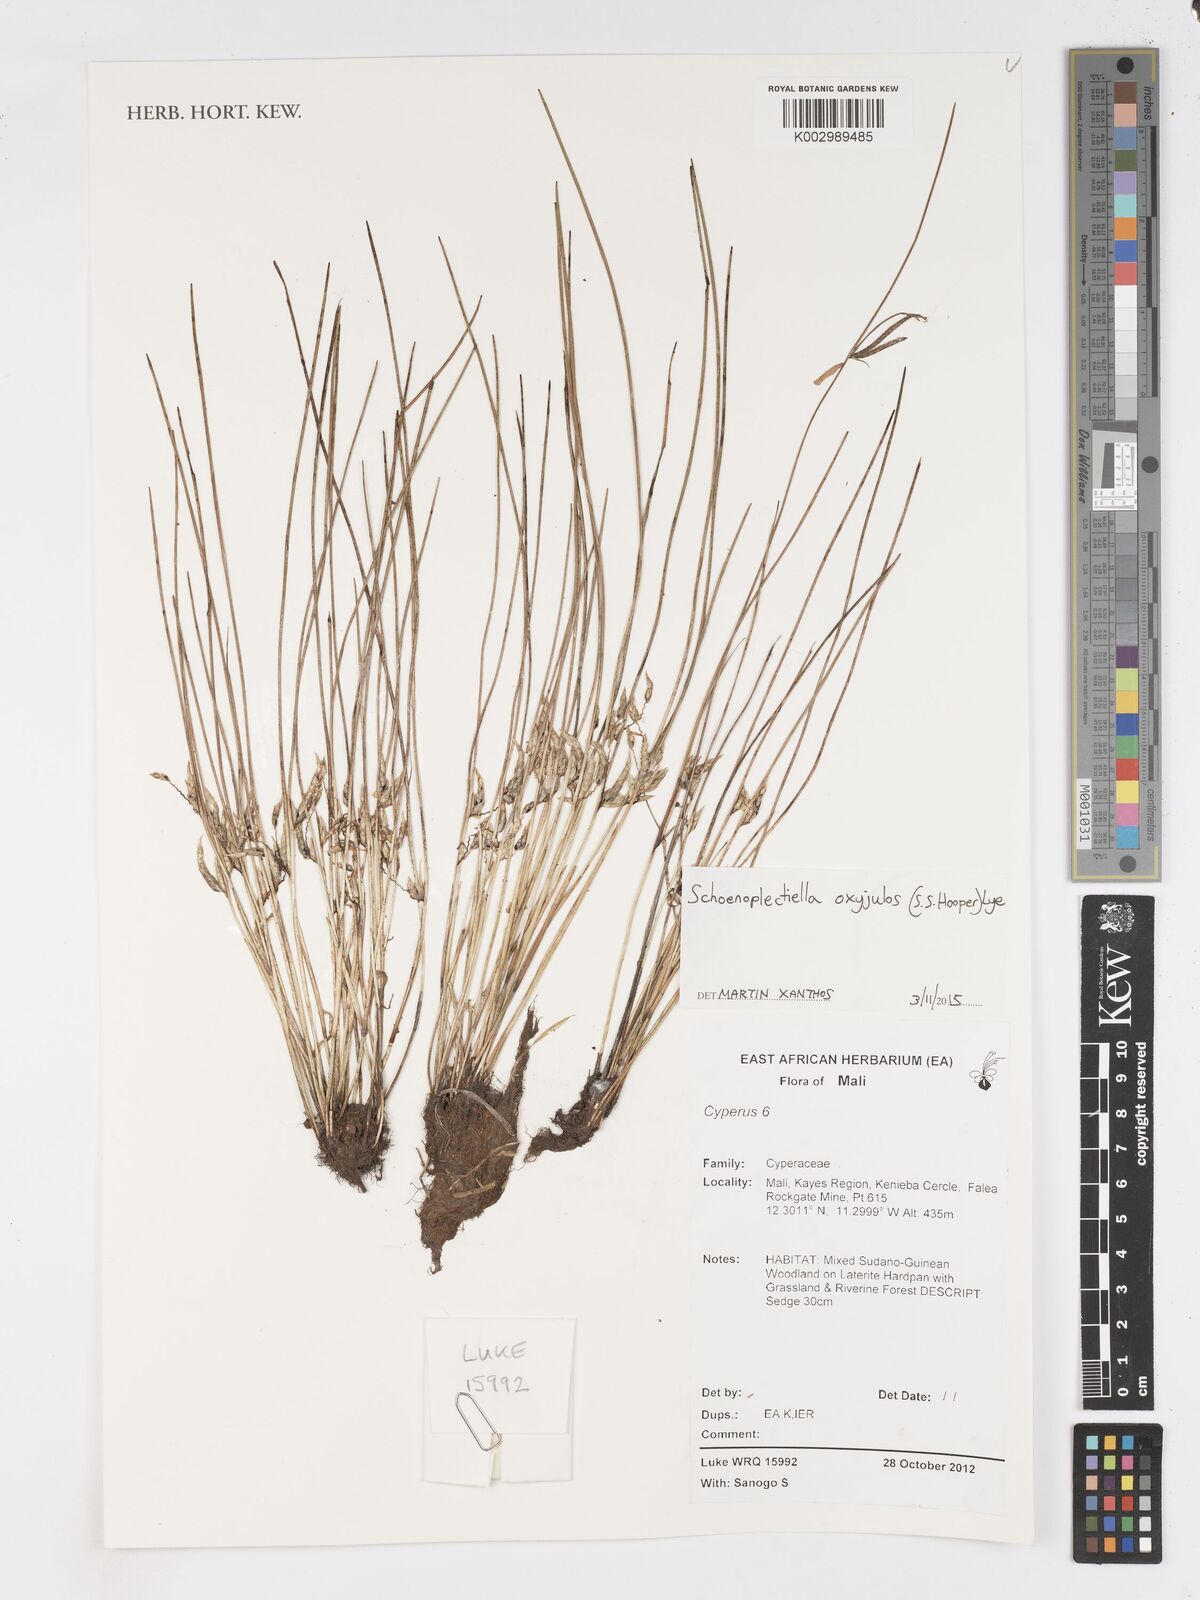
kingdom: Plantae
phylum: Tracheophyta
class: Liliopsida
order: Poales
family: Cyperaceae
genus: Schoenoplectiella
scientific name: Schoenoplectiella oxyjulos
